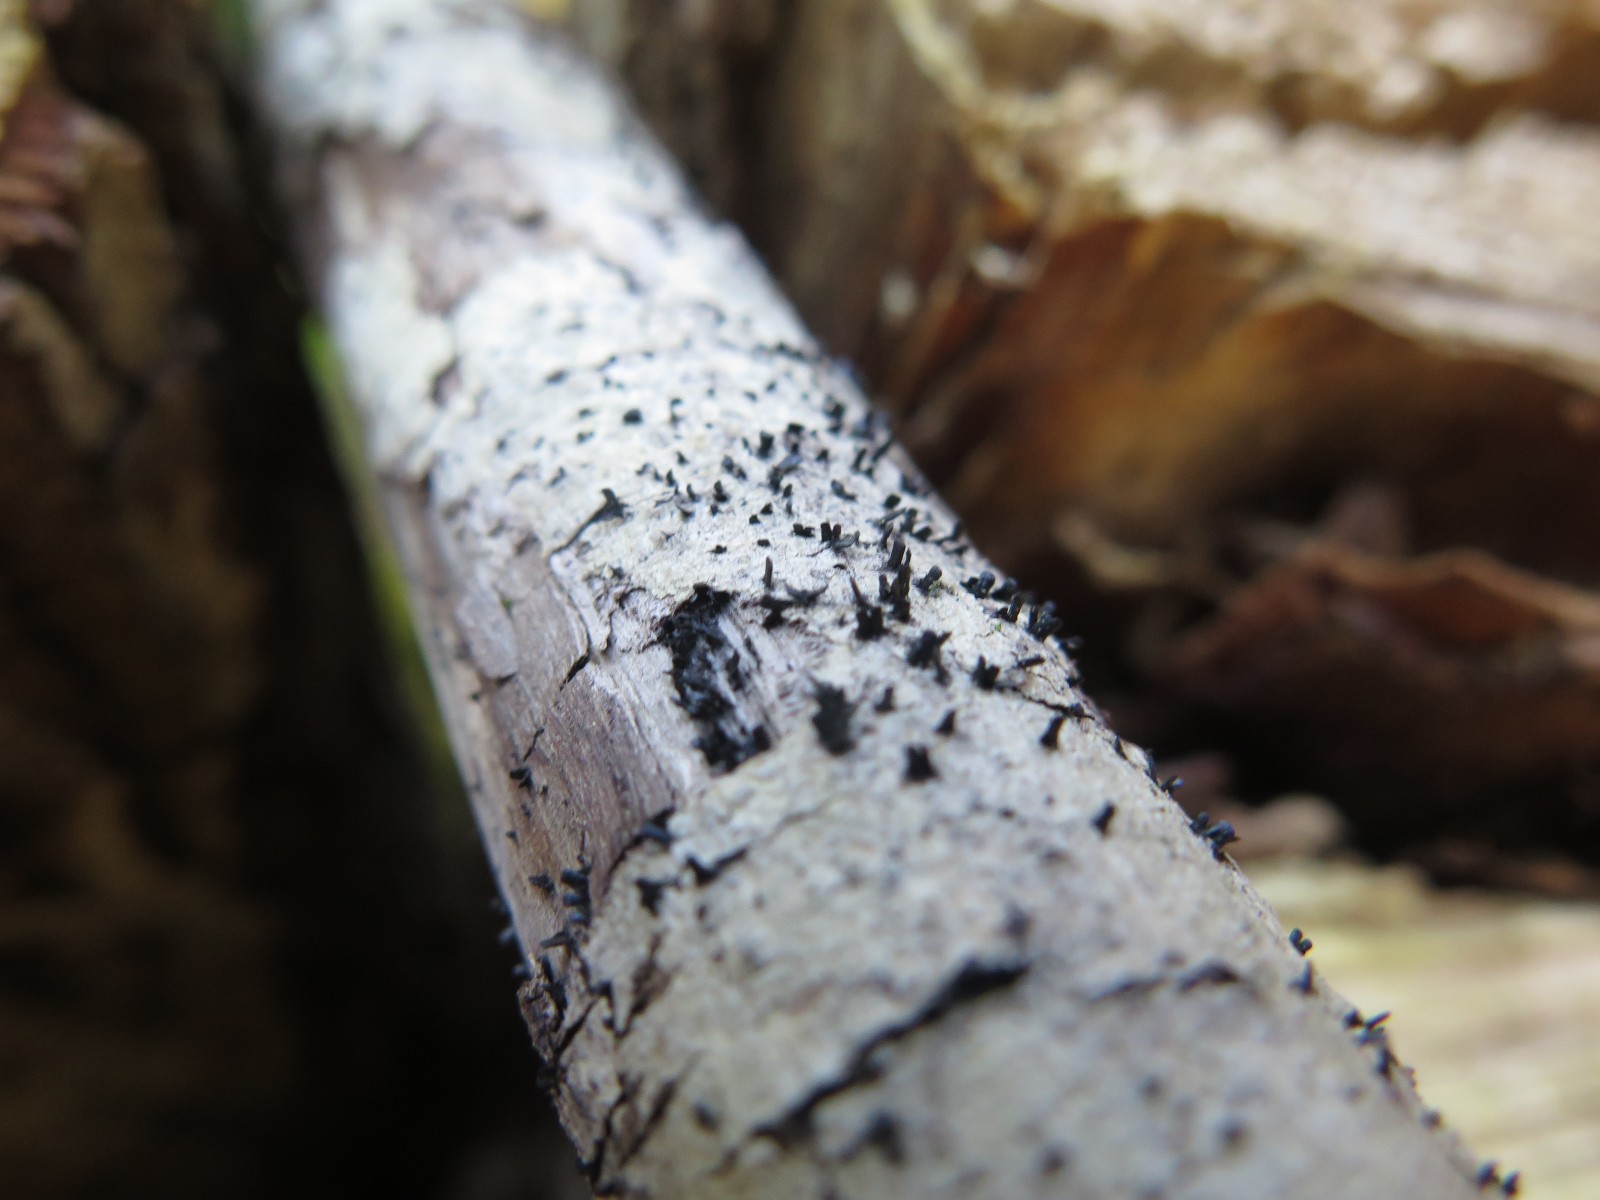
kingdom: Fungi
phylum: Ascomycota
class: Eurotiomycetes
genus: Glyphium
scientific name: Glyphium elatum
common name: kuløkse
